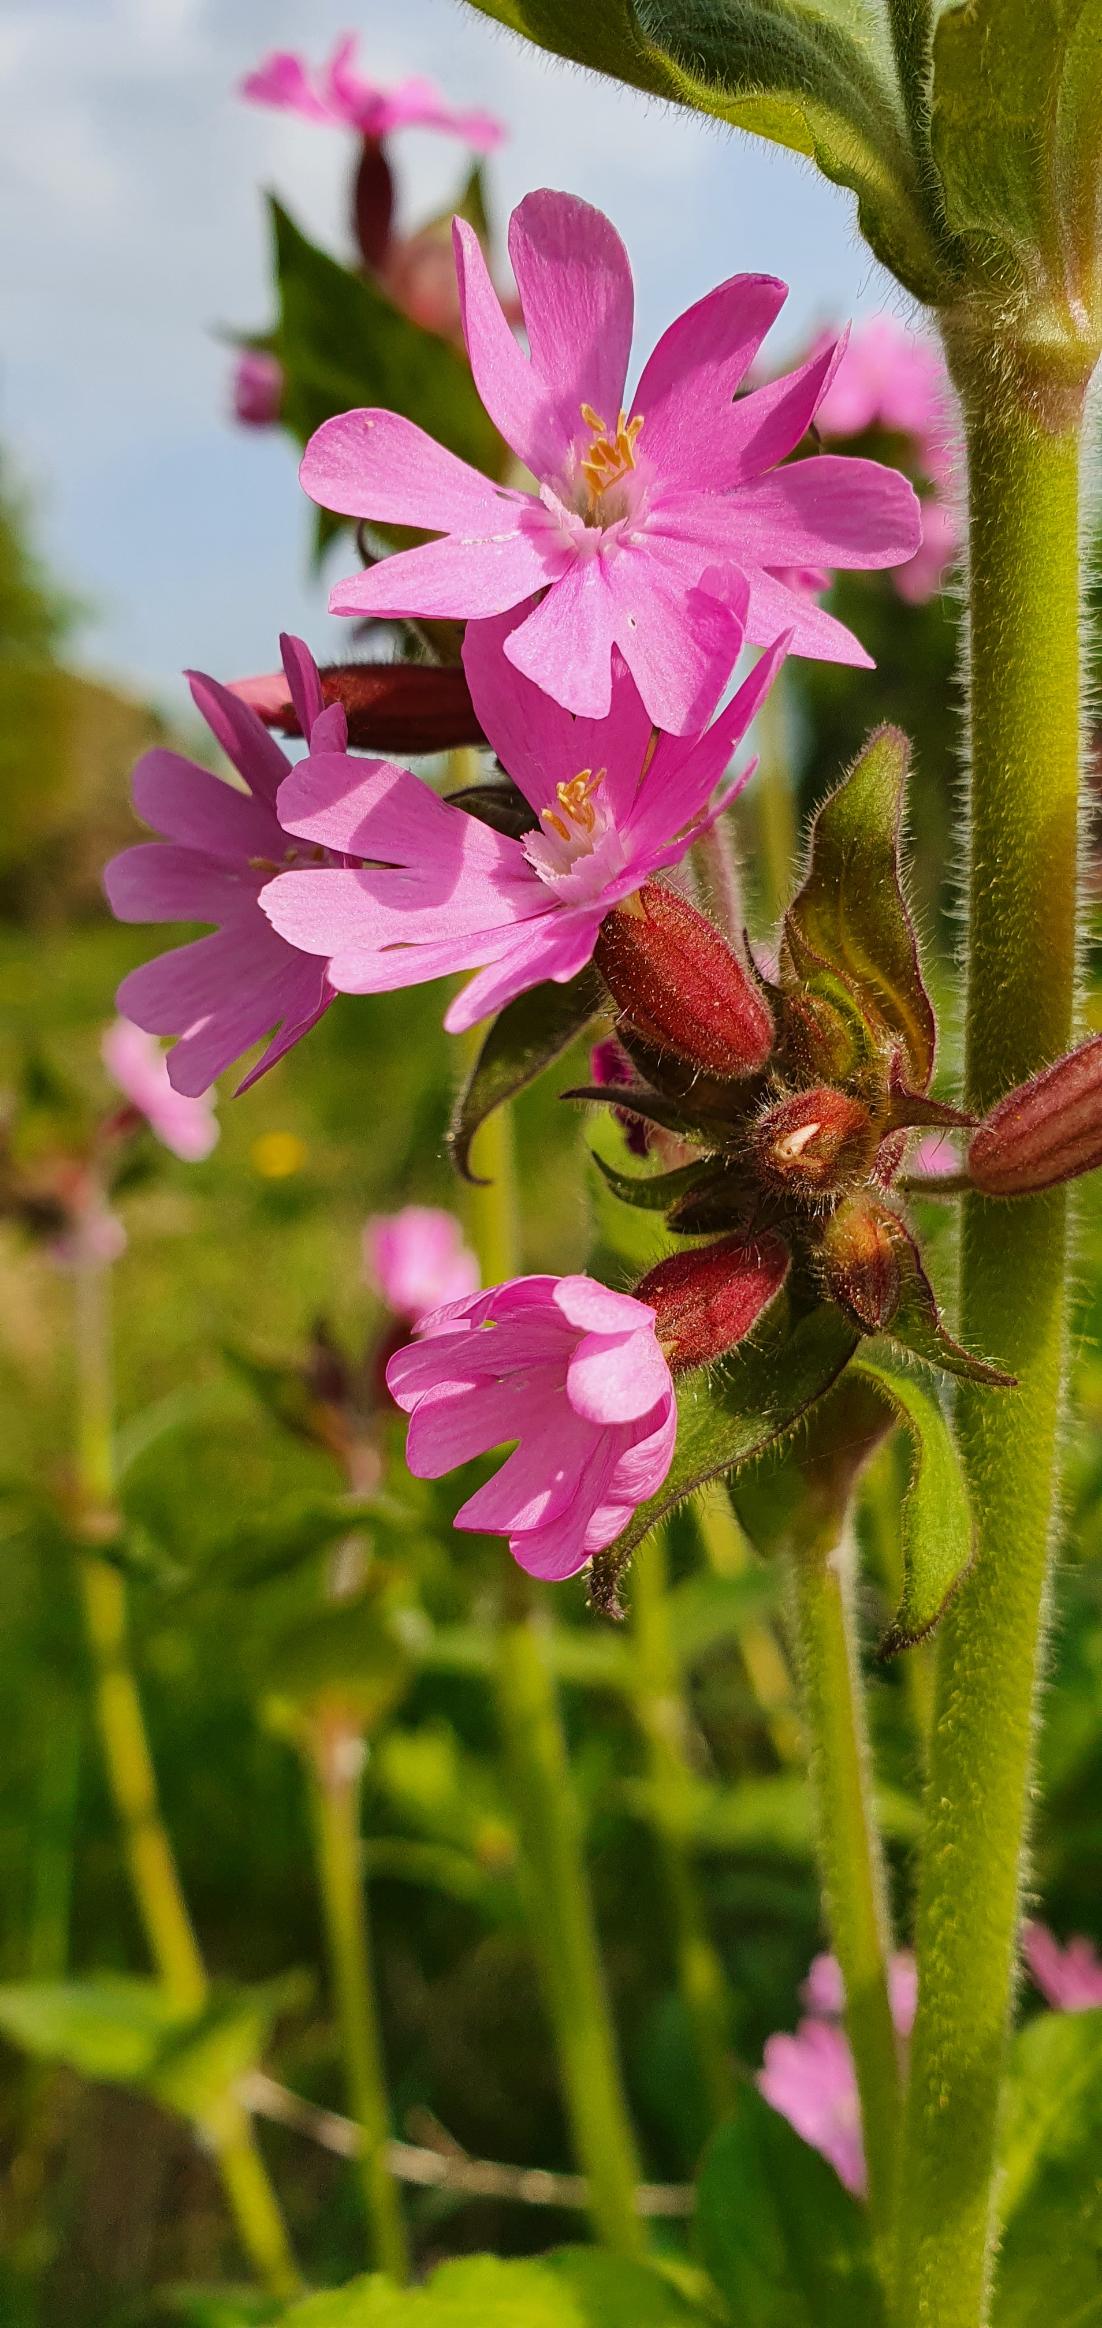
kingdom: Plantae
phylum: Tracheophyta
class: Magnoliopsida
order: Caryophyllales
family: Caryophyllaceae
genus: Silene
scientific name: Silene dioica
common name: Dagpragtstjerne
